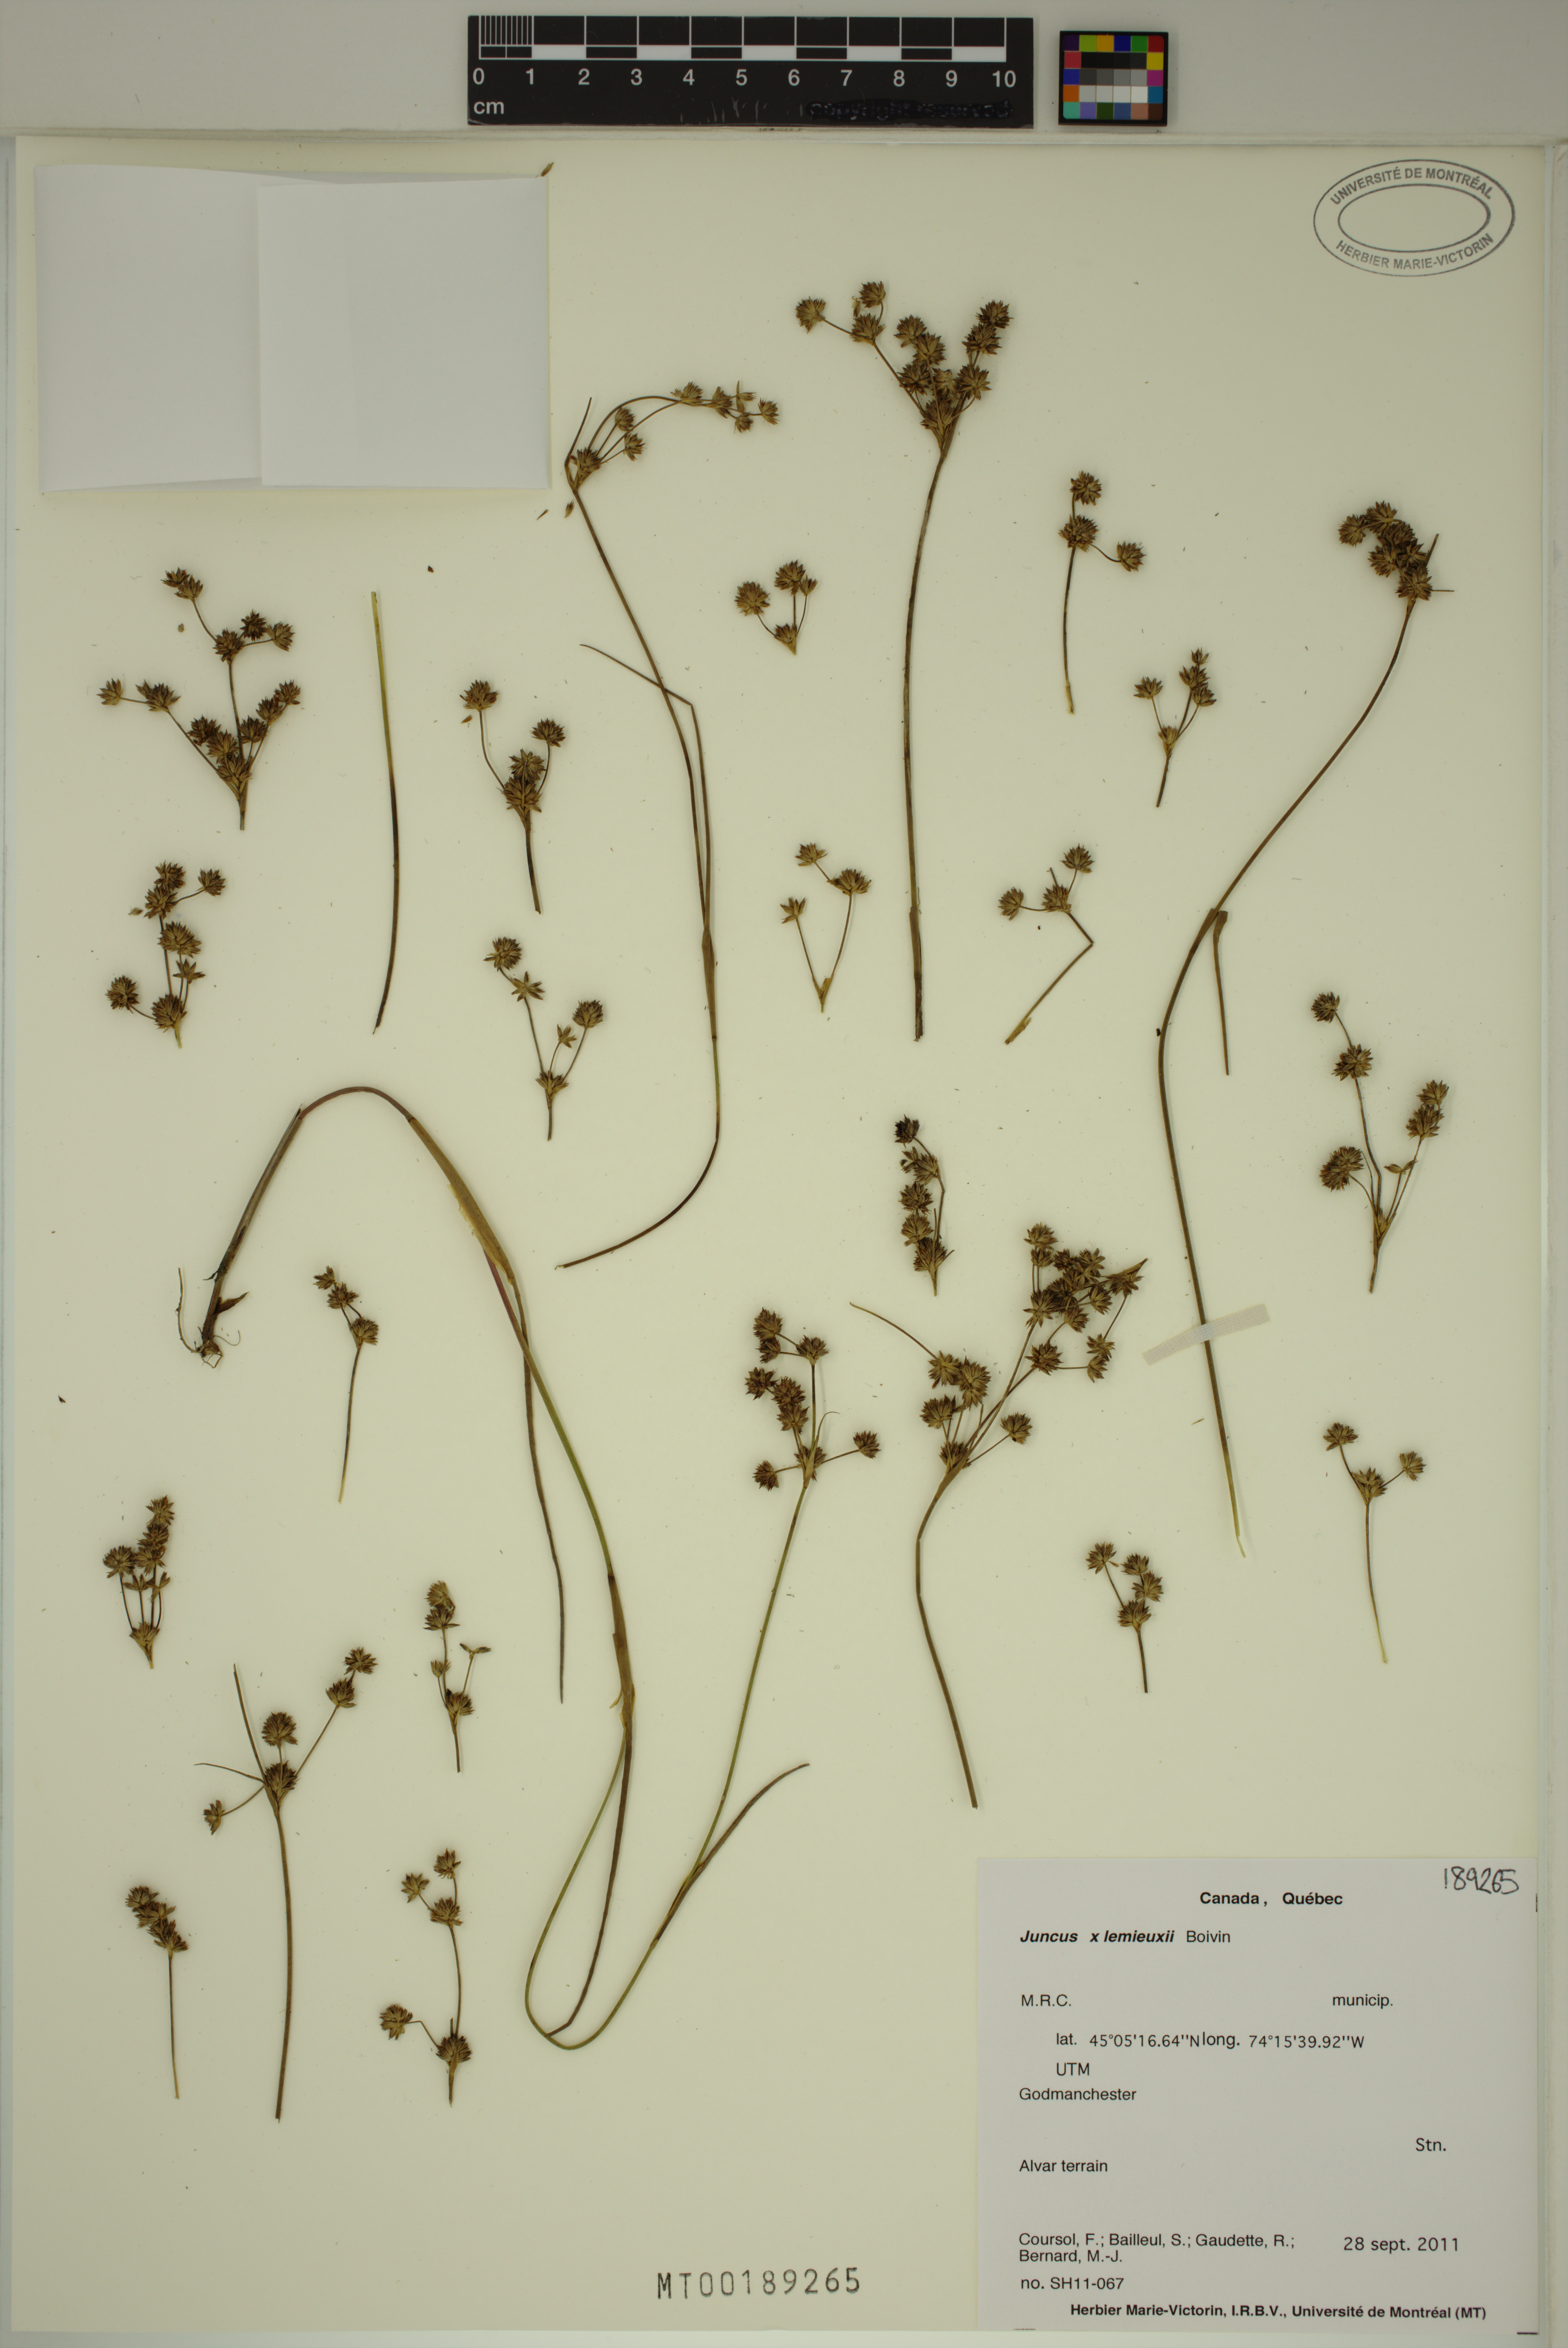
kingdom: Plantae
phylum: Tracheophyta
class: Liliopsida
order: Poales
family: Juncaceae
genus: Juncus
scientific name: Juncus lemieuxii
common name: Lemieux's rush
